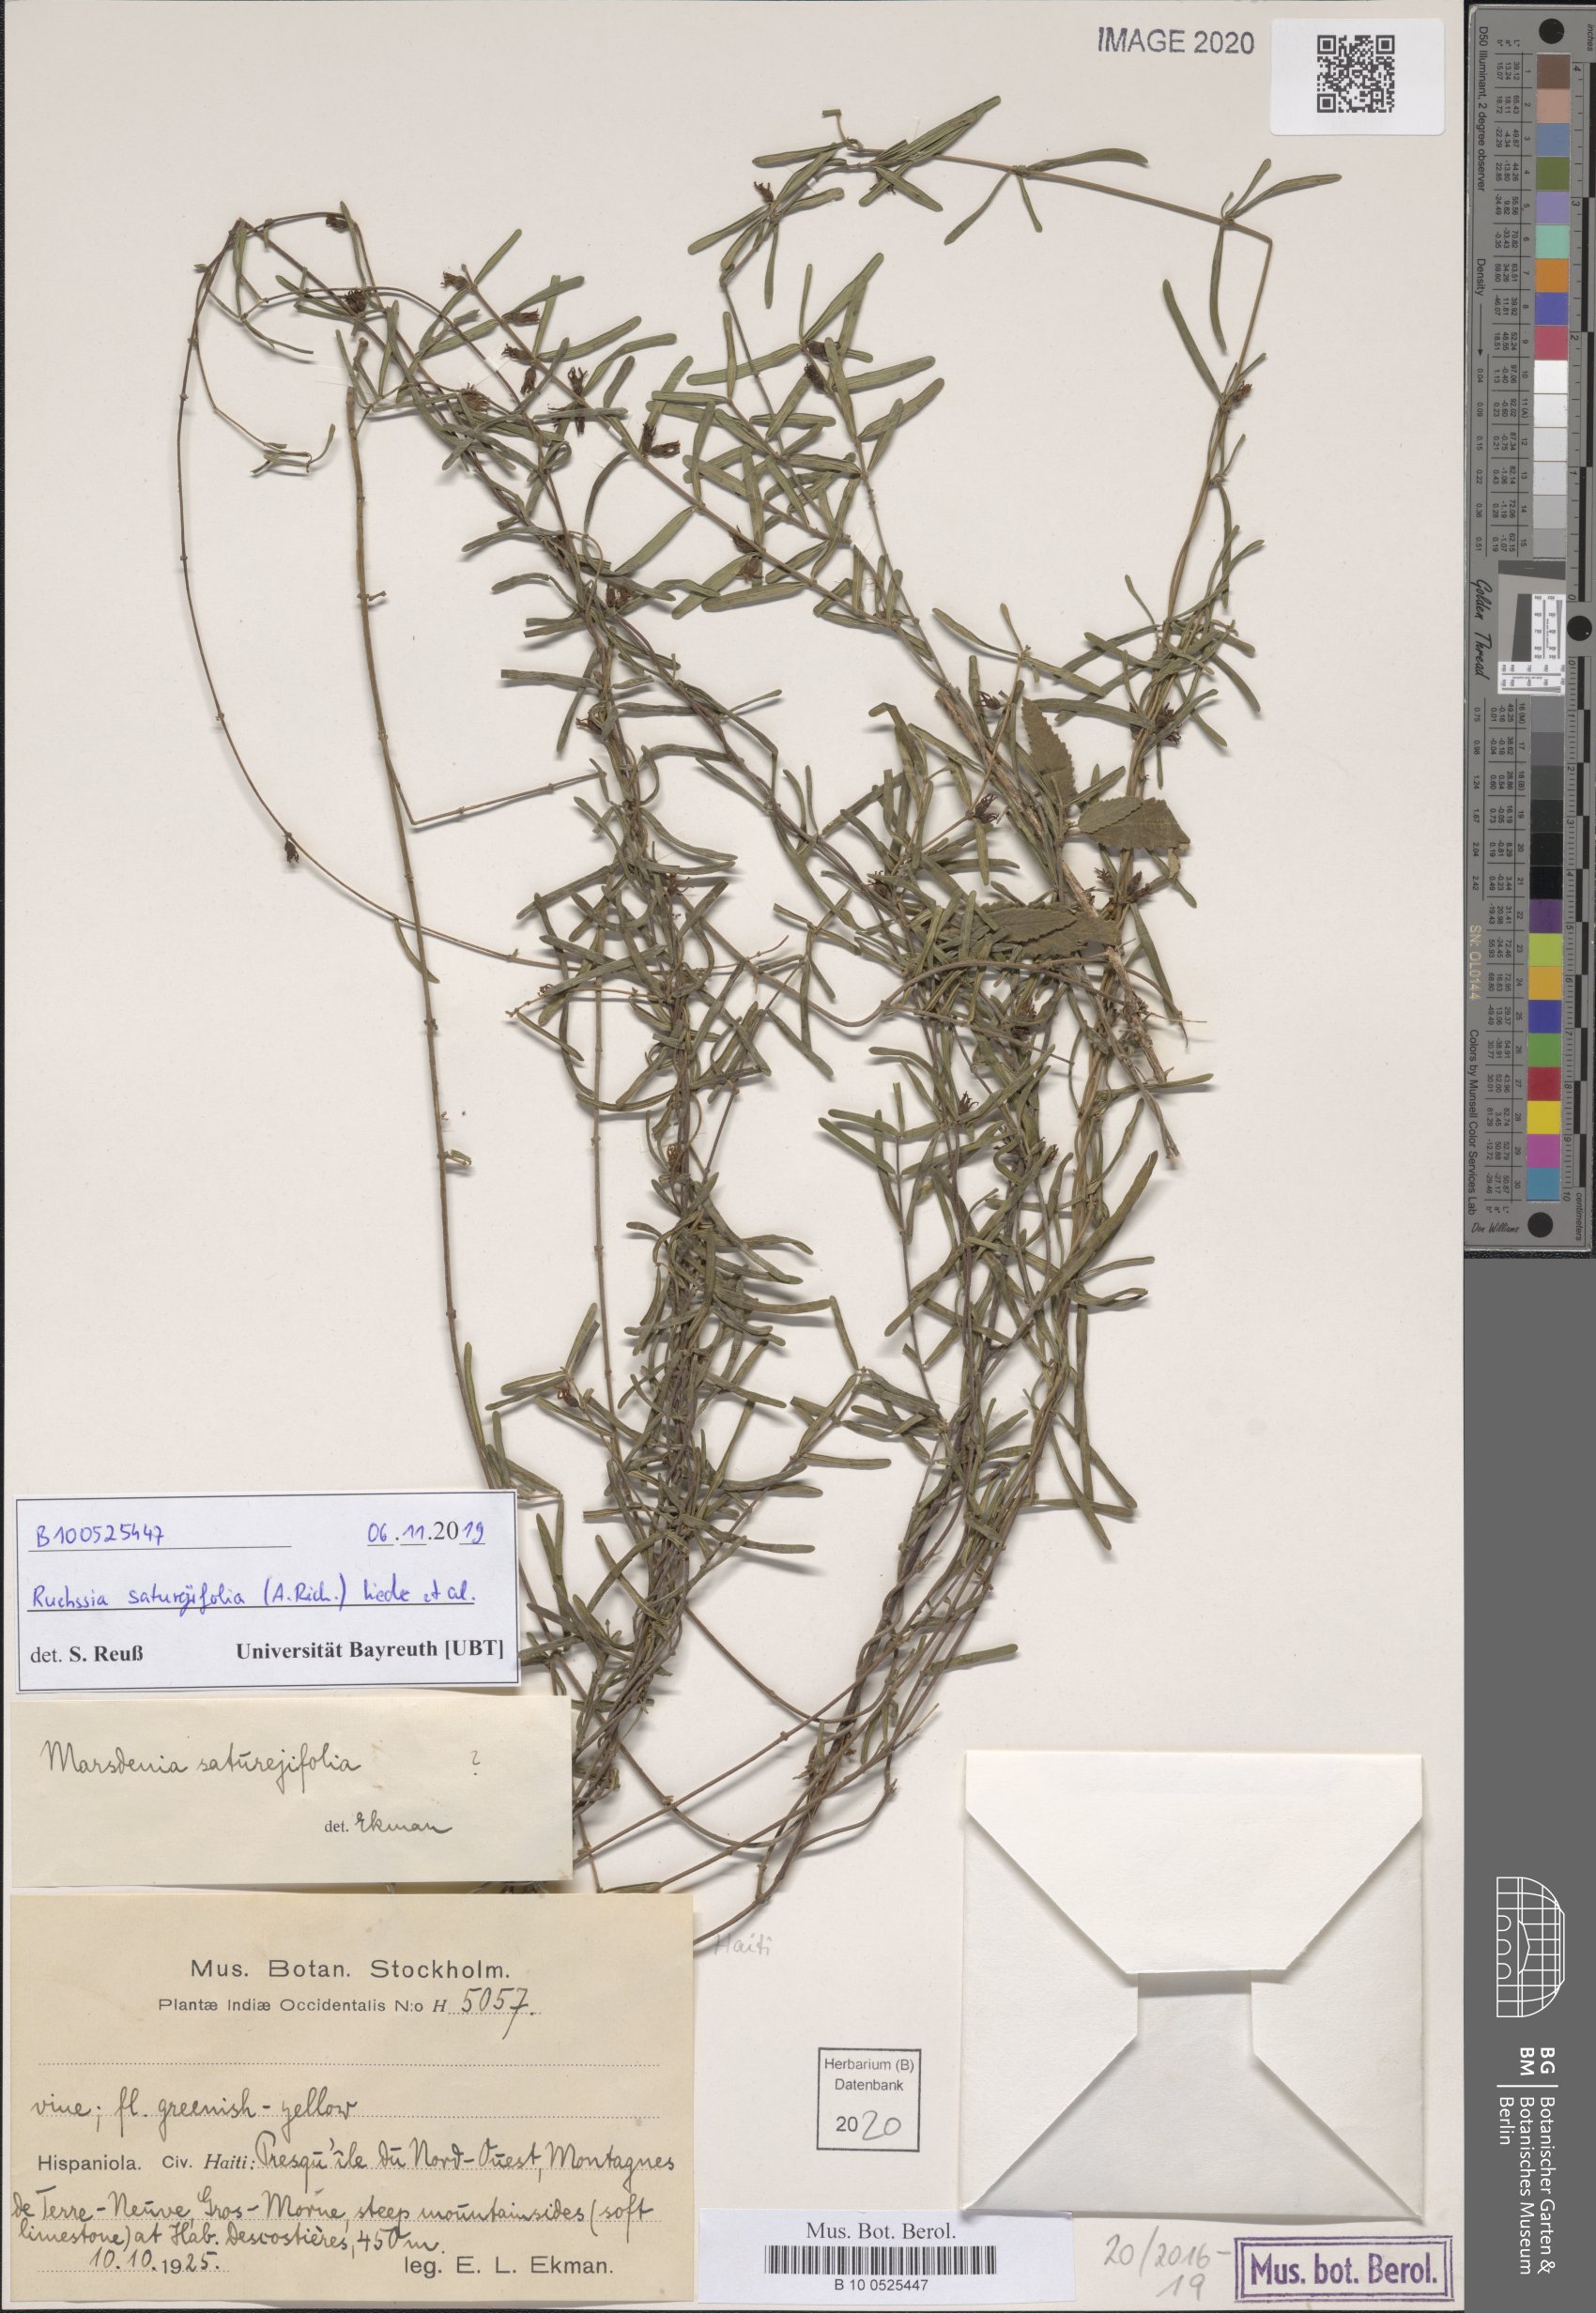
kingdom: Plantae
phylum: Tracheophyta
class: Magnoliopsida
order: Gentianales
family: Apocynaceae
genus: Ruehssia
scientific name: Ruehssia saturejifolia
